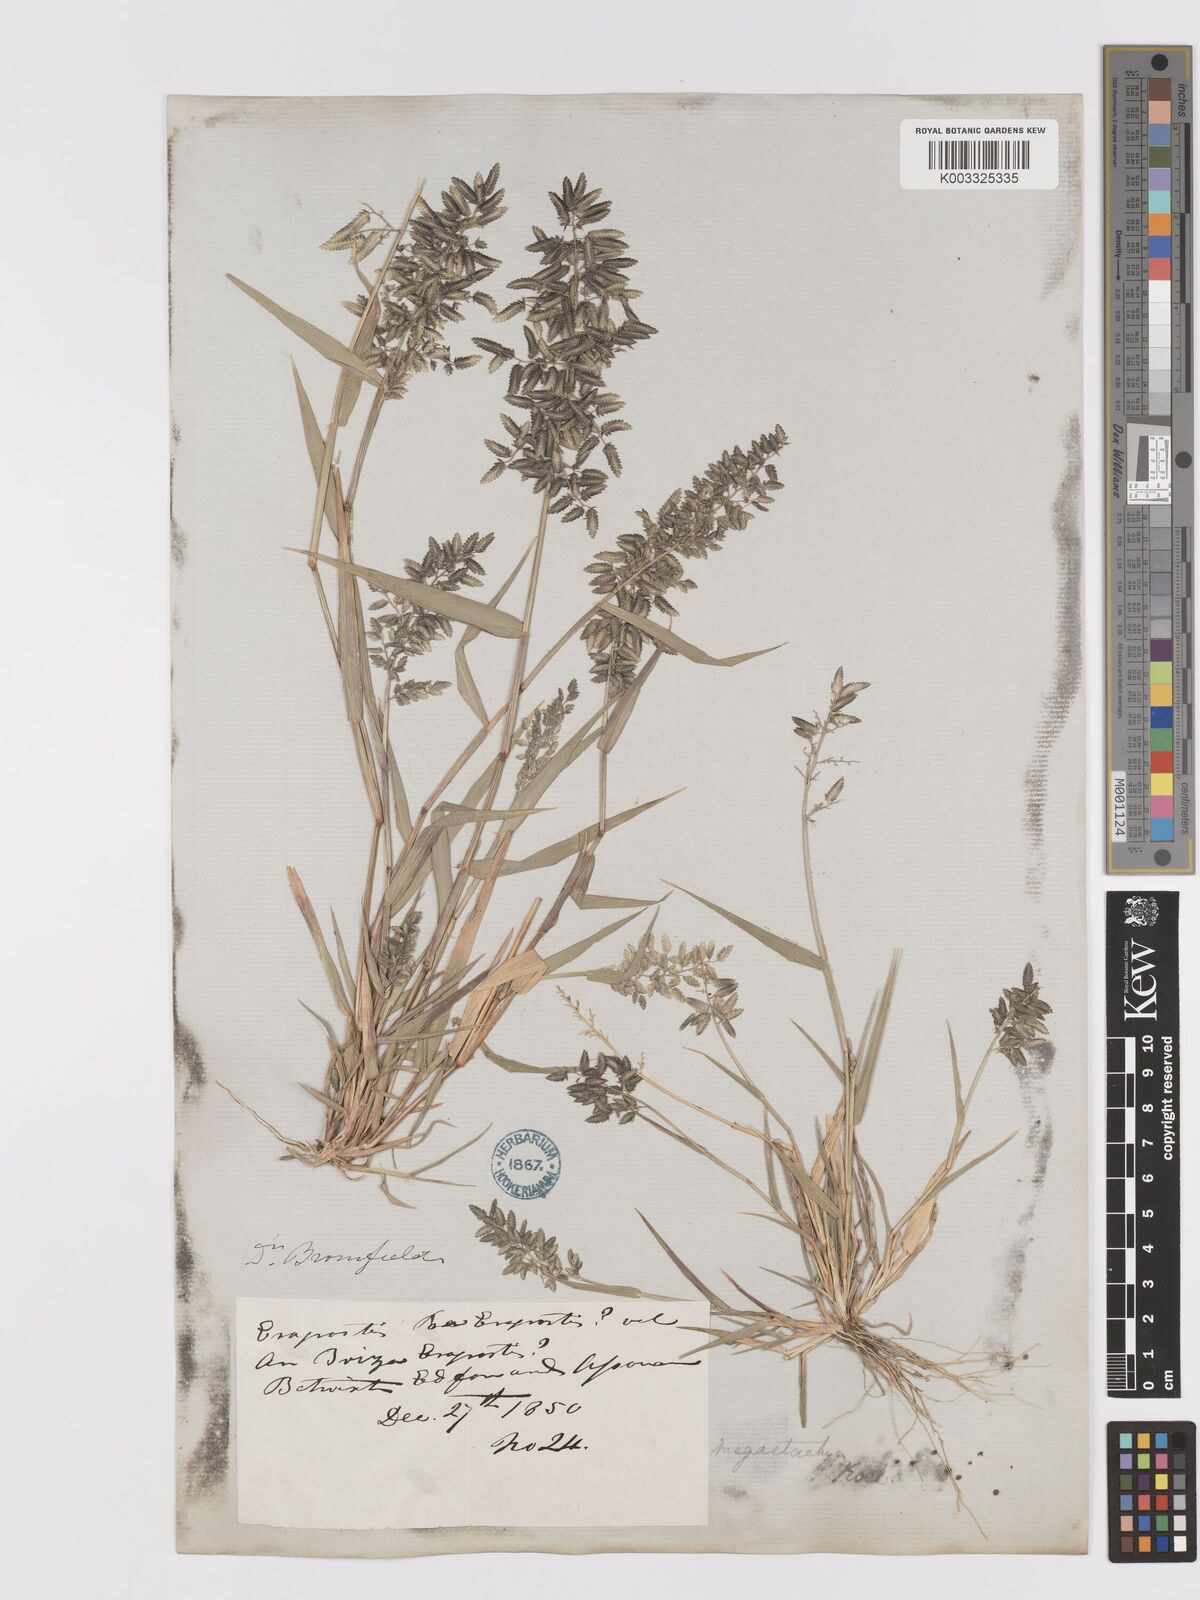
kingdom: Plantae
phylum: Tracheophyta
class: Liliopsida
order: Poales
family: Poaceae
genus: Eragrostis
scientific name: Eragrostis cilianensis
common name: Stinkgrass
